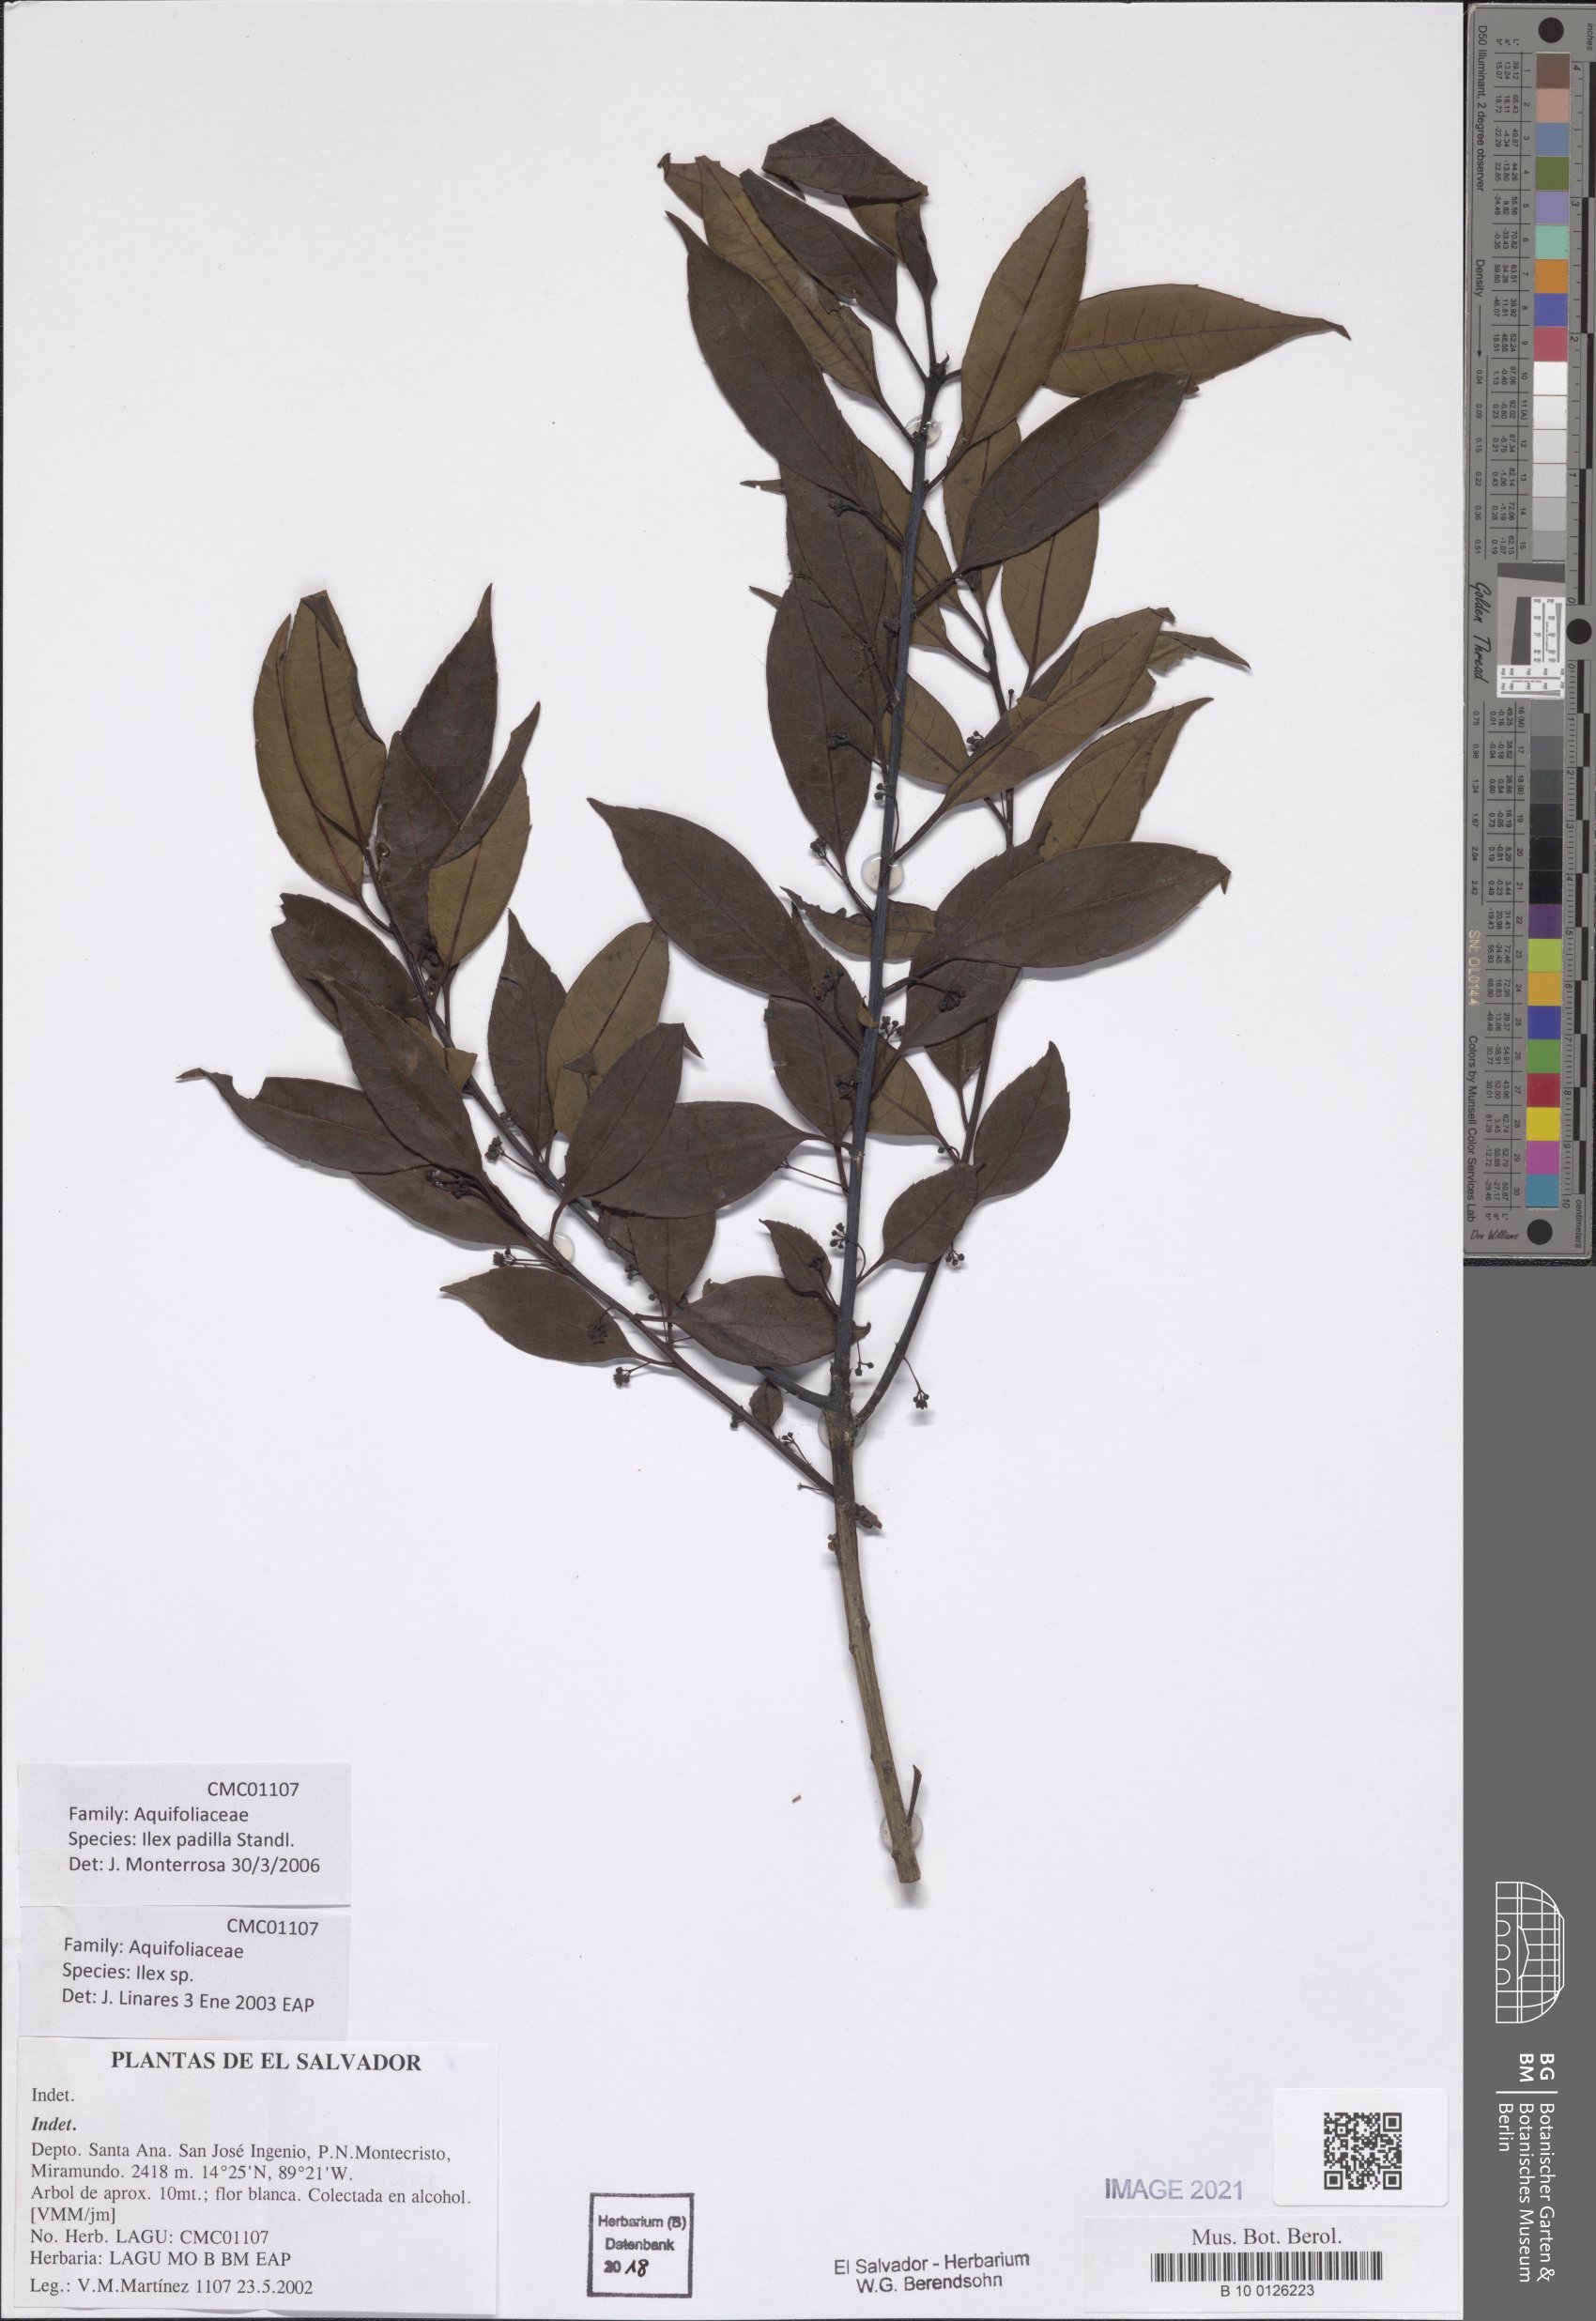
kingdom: Plantae
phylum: Tracheophyta
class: Magnoliopsida
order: Aquifoliales
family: Aquifoliaceae
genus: Ilex
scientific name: Ilex liebmannii
